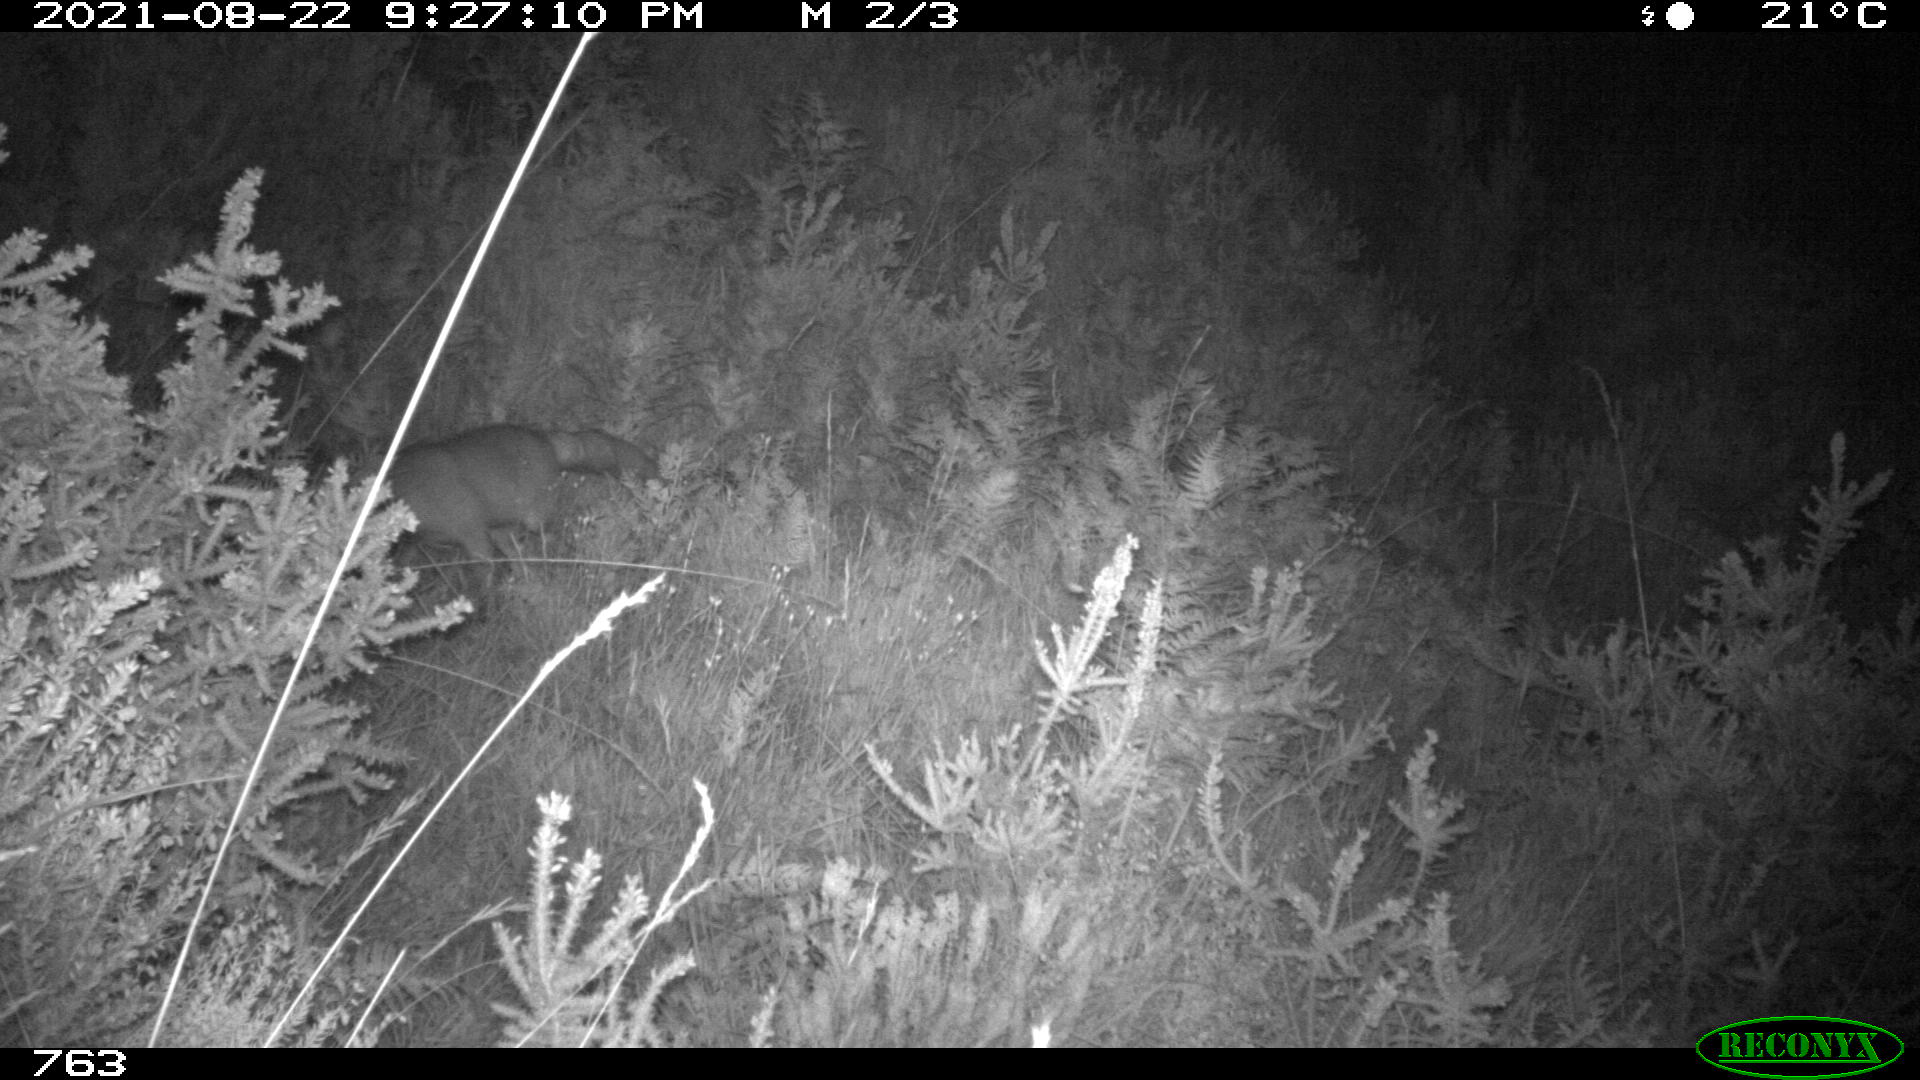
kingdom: Animalia
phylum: Chordata
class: Mammalia
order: Carnivora
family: Canidae
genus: Vulpes
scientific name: Vulpes vulpes
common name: Red fox
